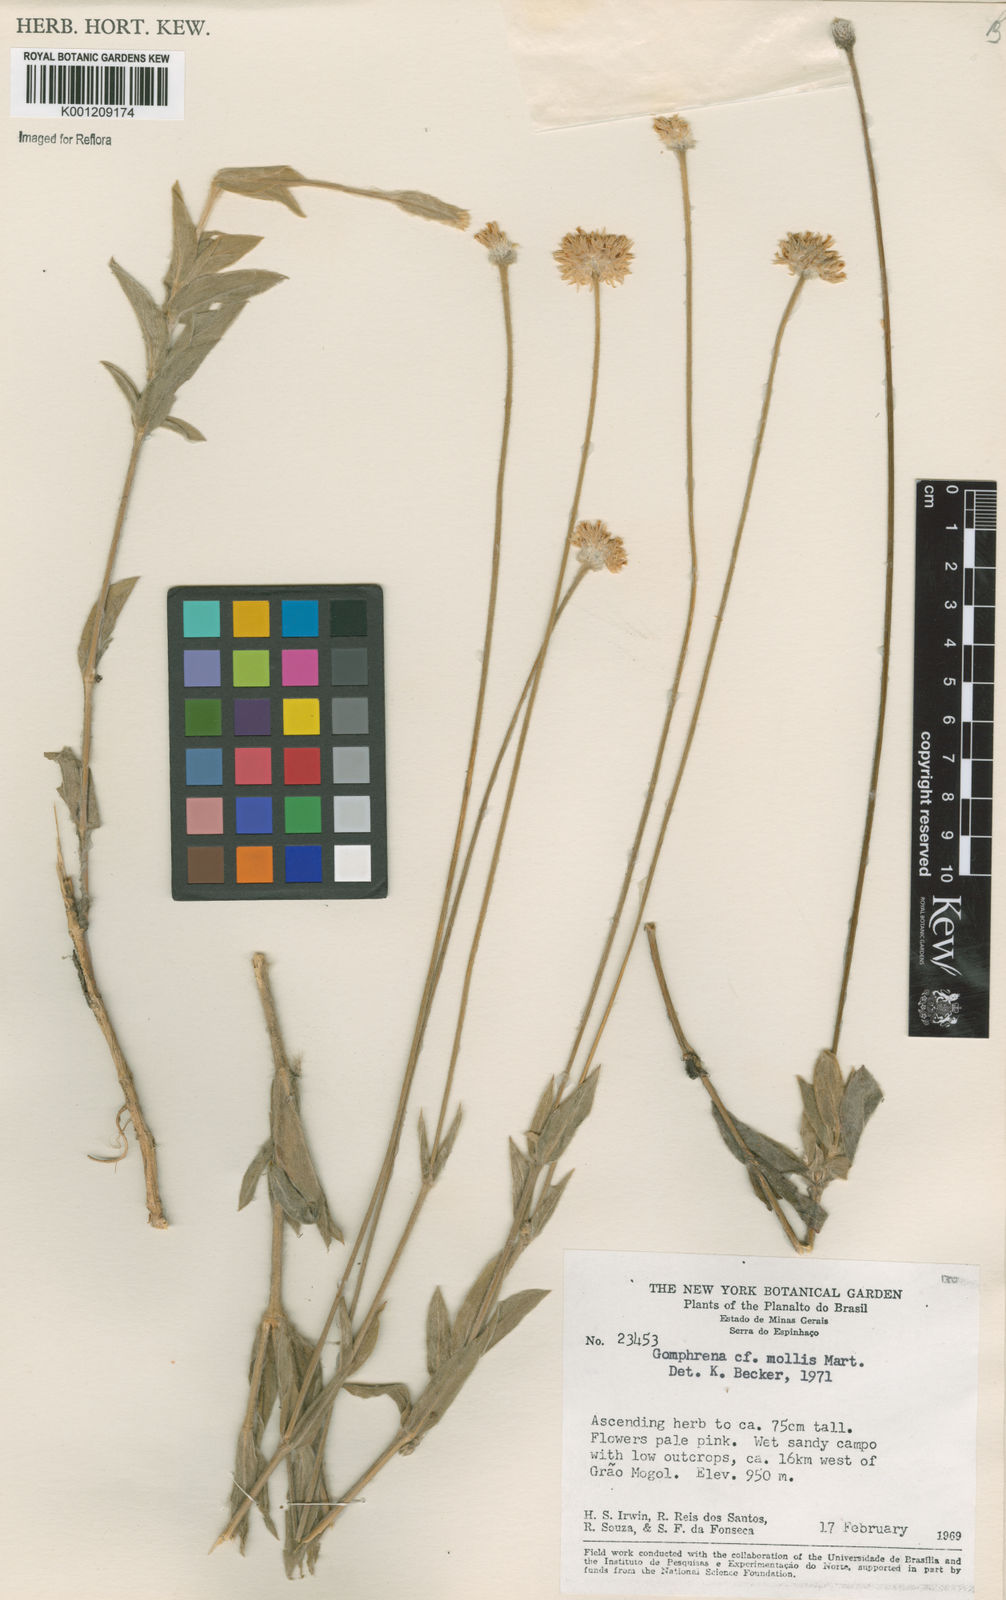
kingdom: Plantae
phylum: Tracheophyta
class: Magnoliopsida
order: Caryophyllales
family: Amaranthaceae
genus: Gomphrena
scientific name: Gomphrena mollis
